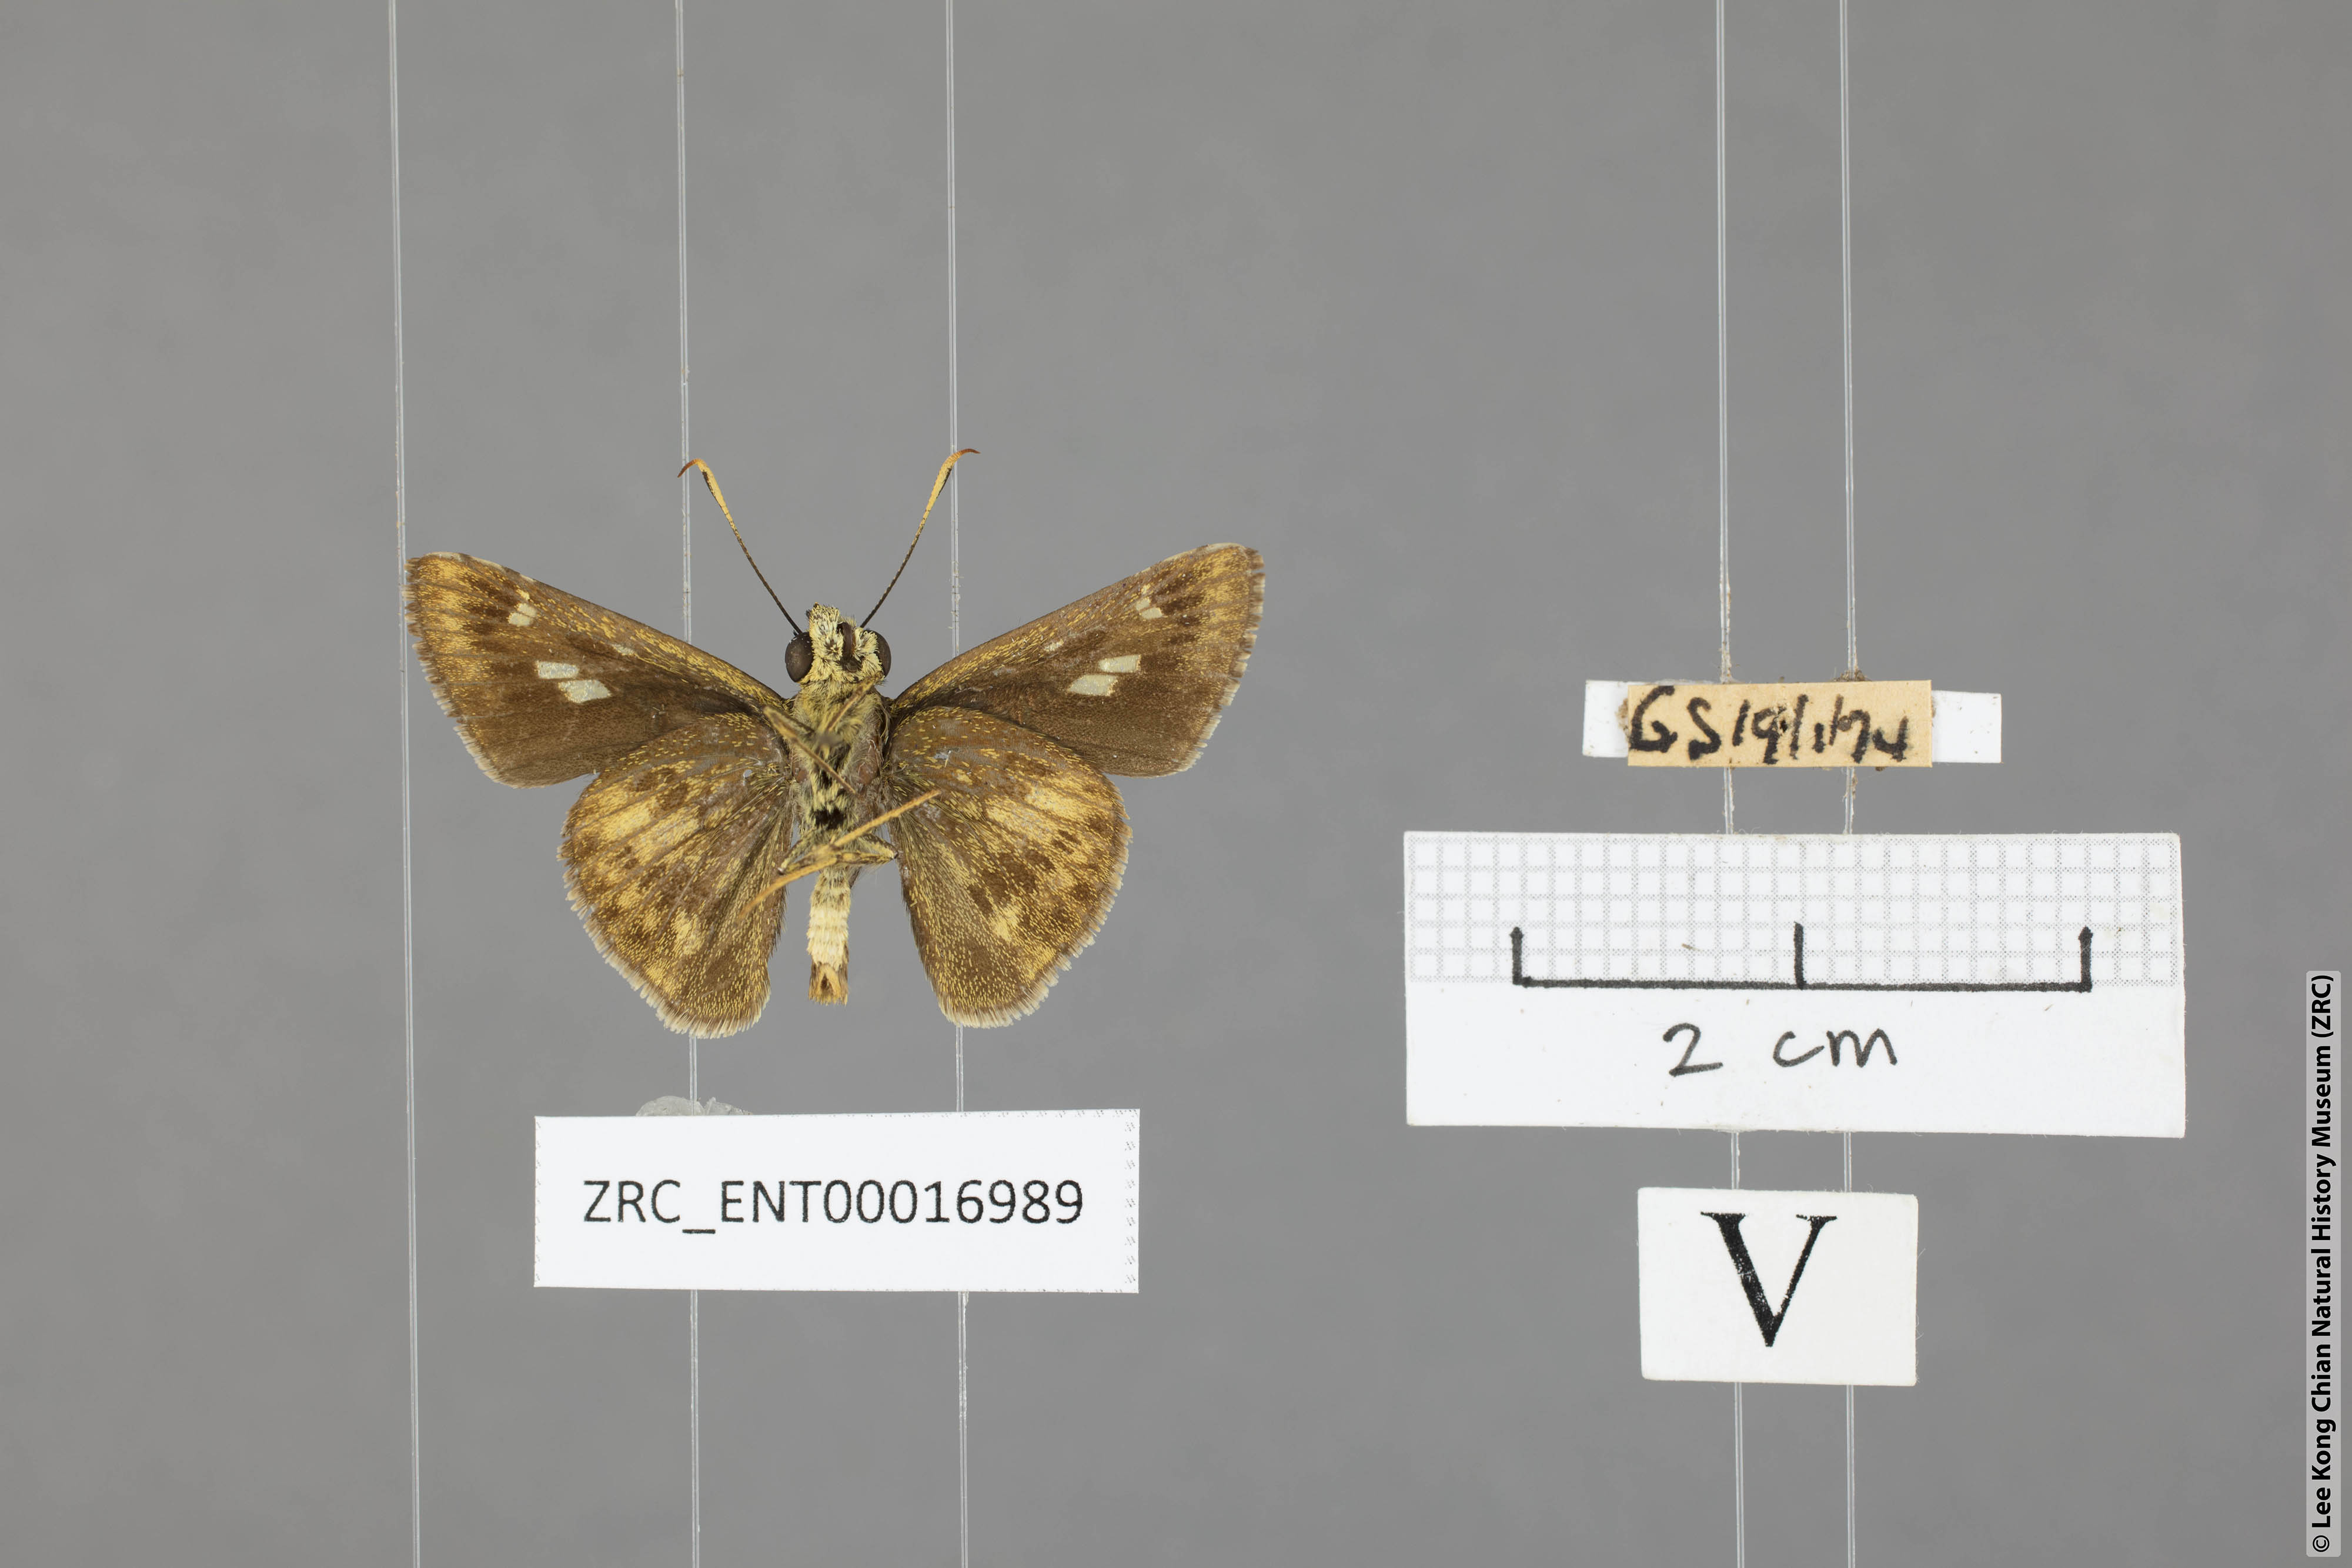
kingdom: Animalia
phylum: Arthropoda
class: Insecta
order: Lepidoptera
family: Hesperiidae
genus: Halpe
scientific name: Halpe flava
